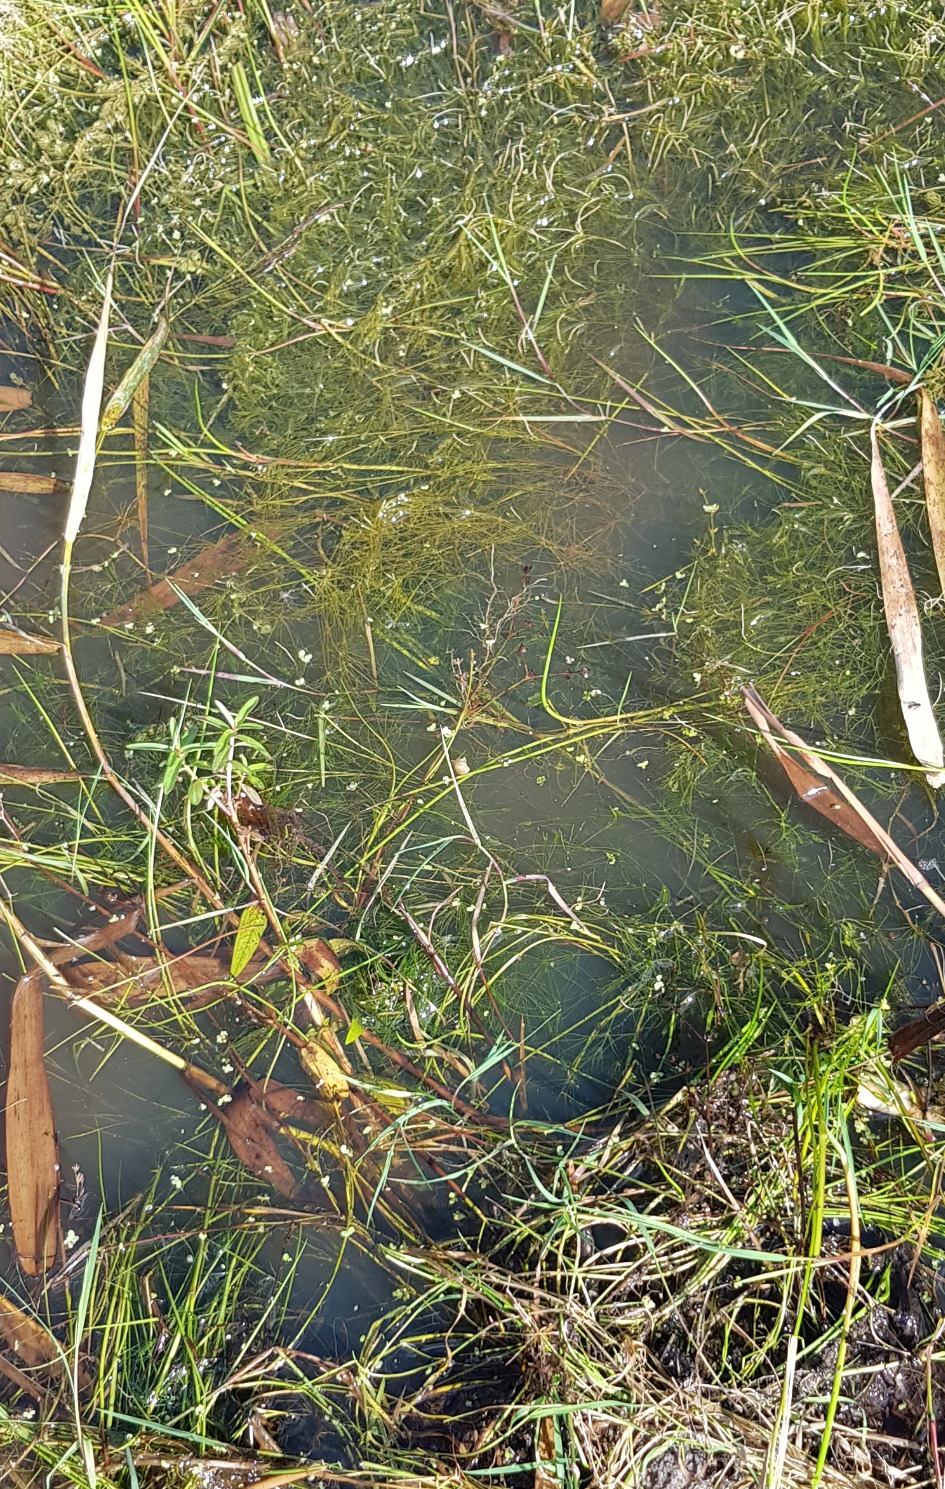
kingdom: Plantae
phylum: Tracheophyta
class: Magnoliopsida
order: Ceratophyllales
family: Ceratophyllaceae
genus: Ceratophyllum
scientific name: Ceratophyllum submersum
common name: Tornløs hornblad
